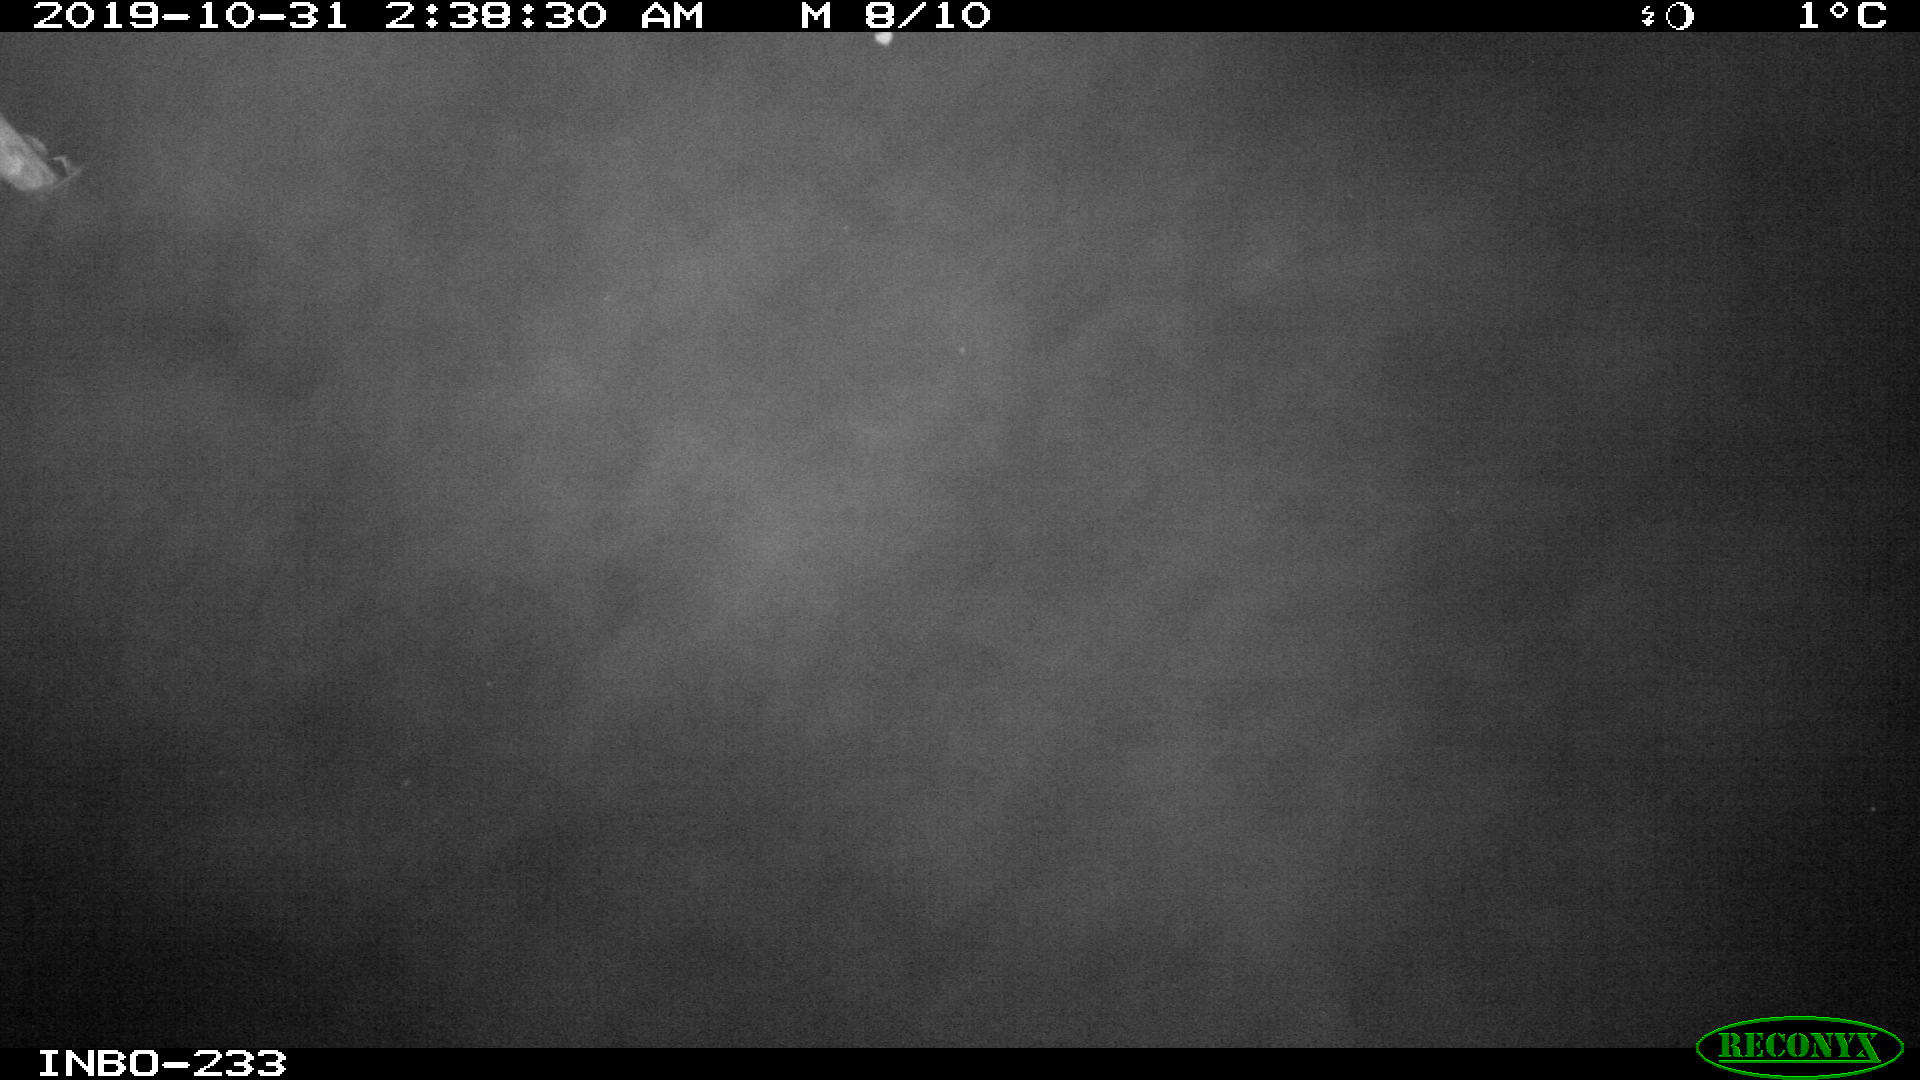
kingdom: Animalia
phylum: Chordata
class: Aves
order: Anseriformes
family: Anatidae
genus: Anas
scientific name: Anas platyrhynchos
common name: Mallard
